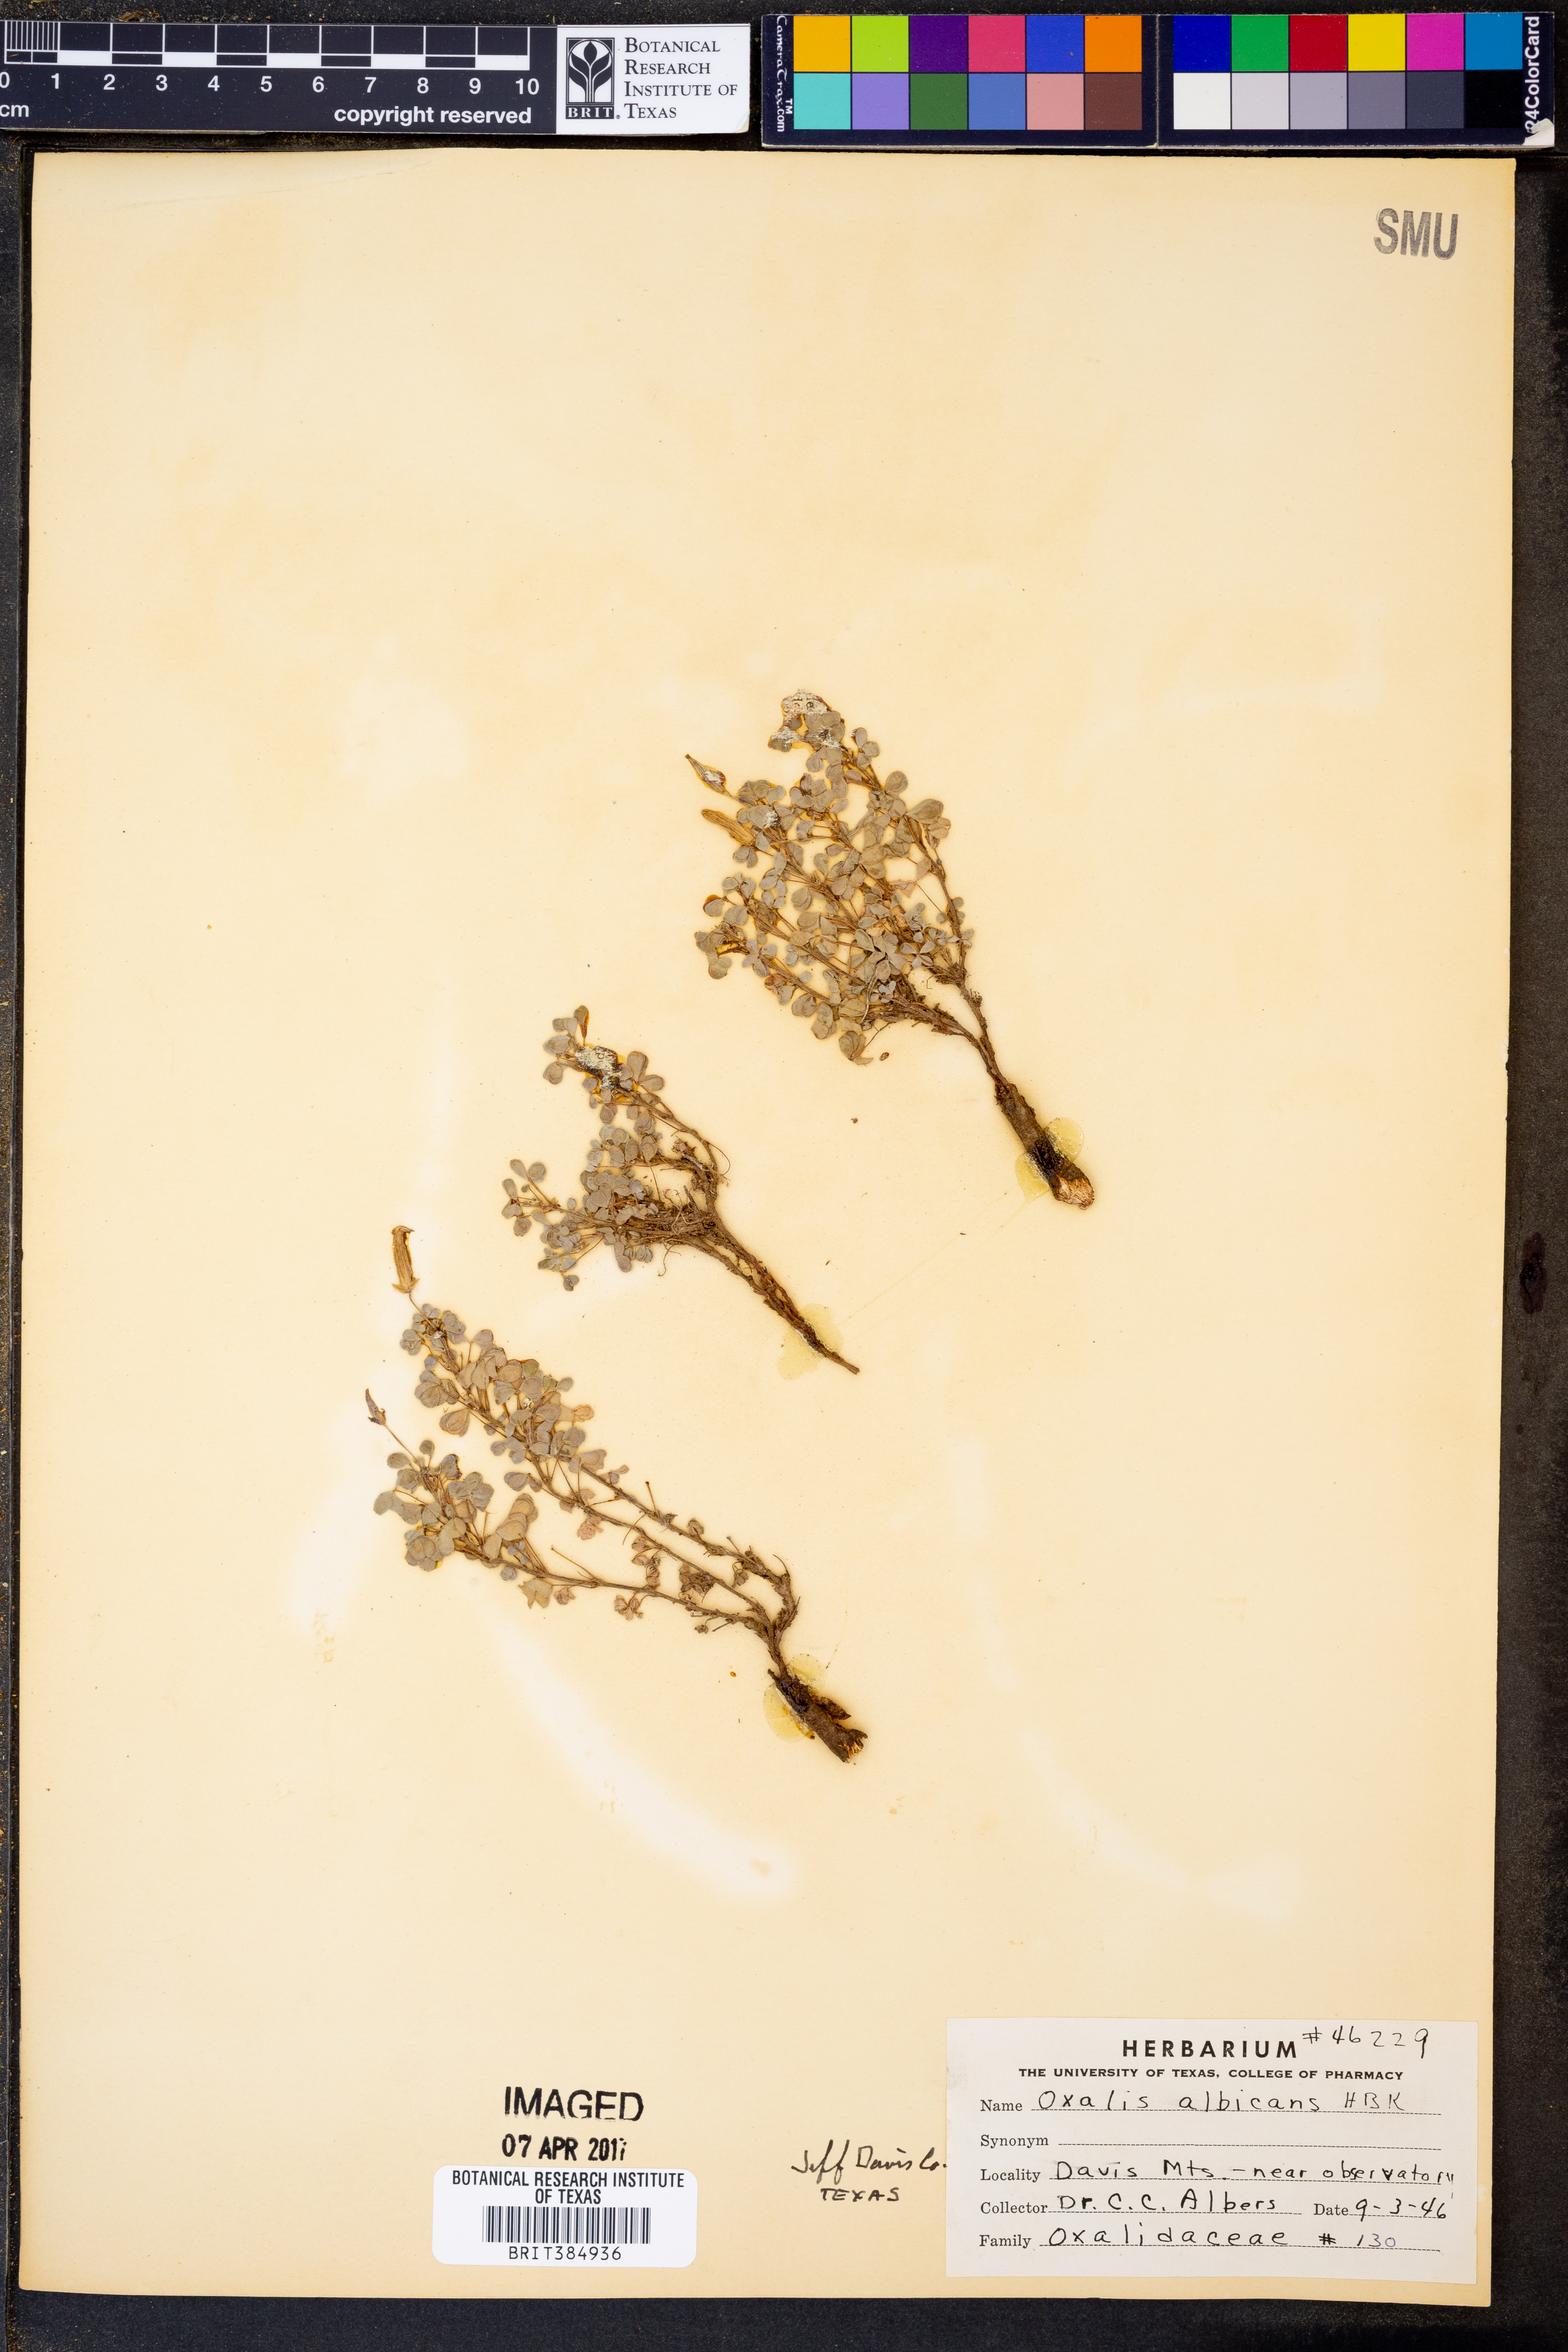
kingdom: Plantae
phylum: Tracheophyta
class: Magnoliopsida
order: Oxalidales
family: Oxalidaceae
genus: Oxalis
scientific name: Oxalis albicans
